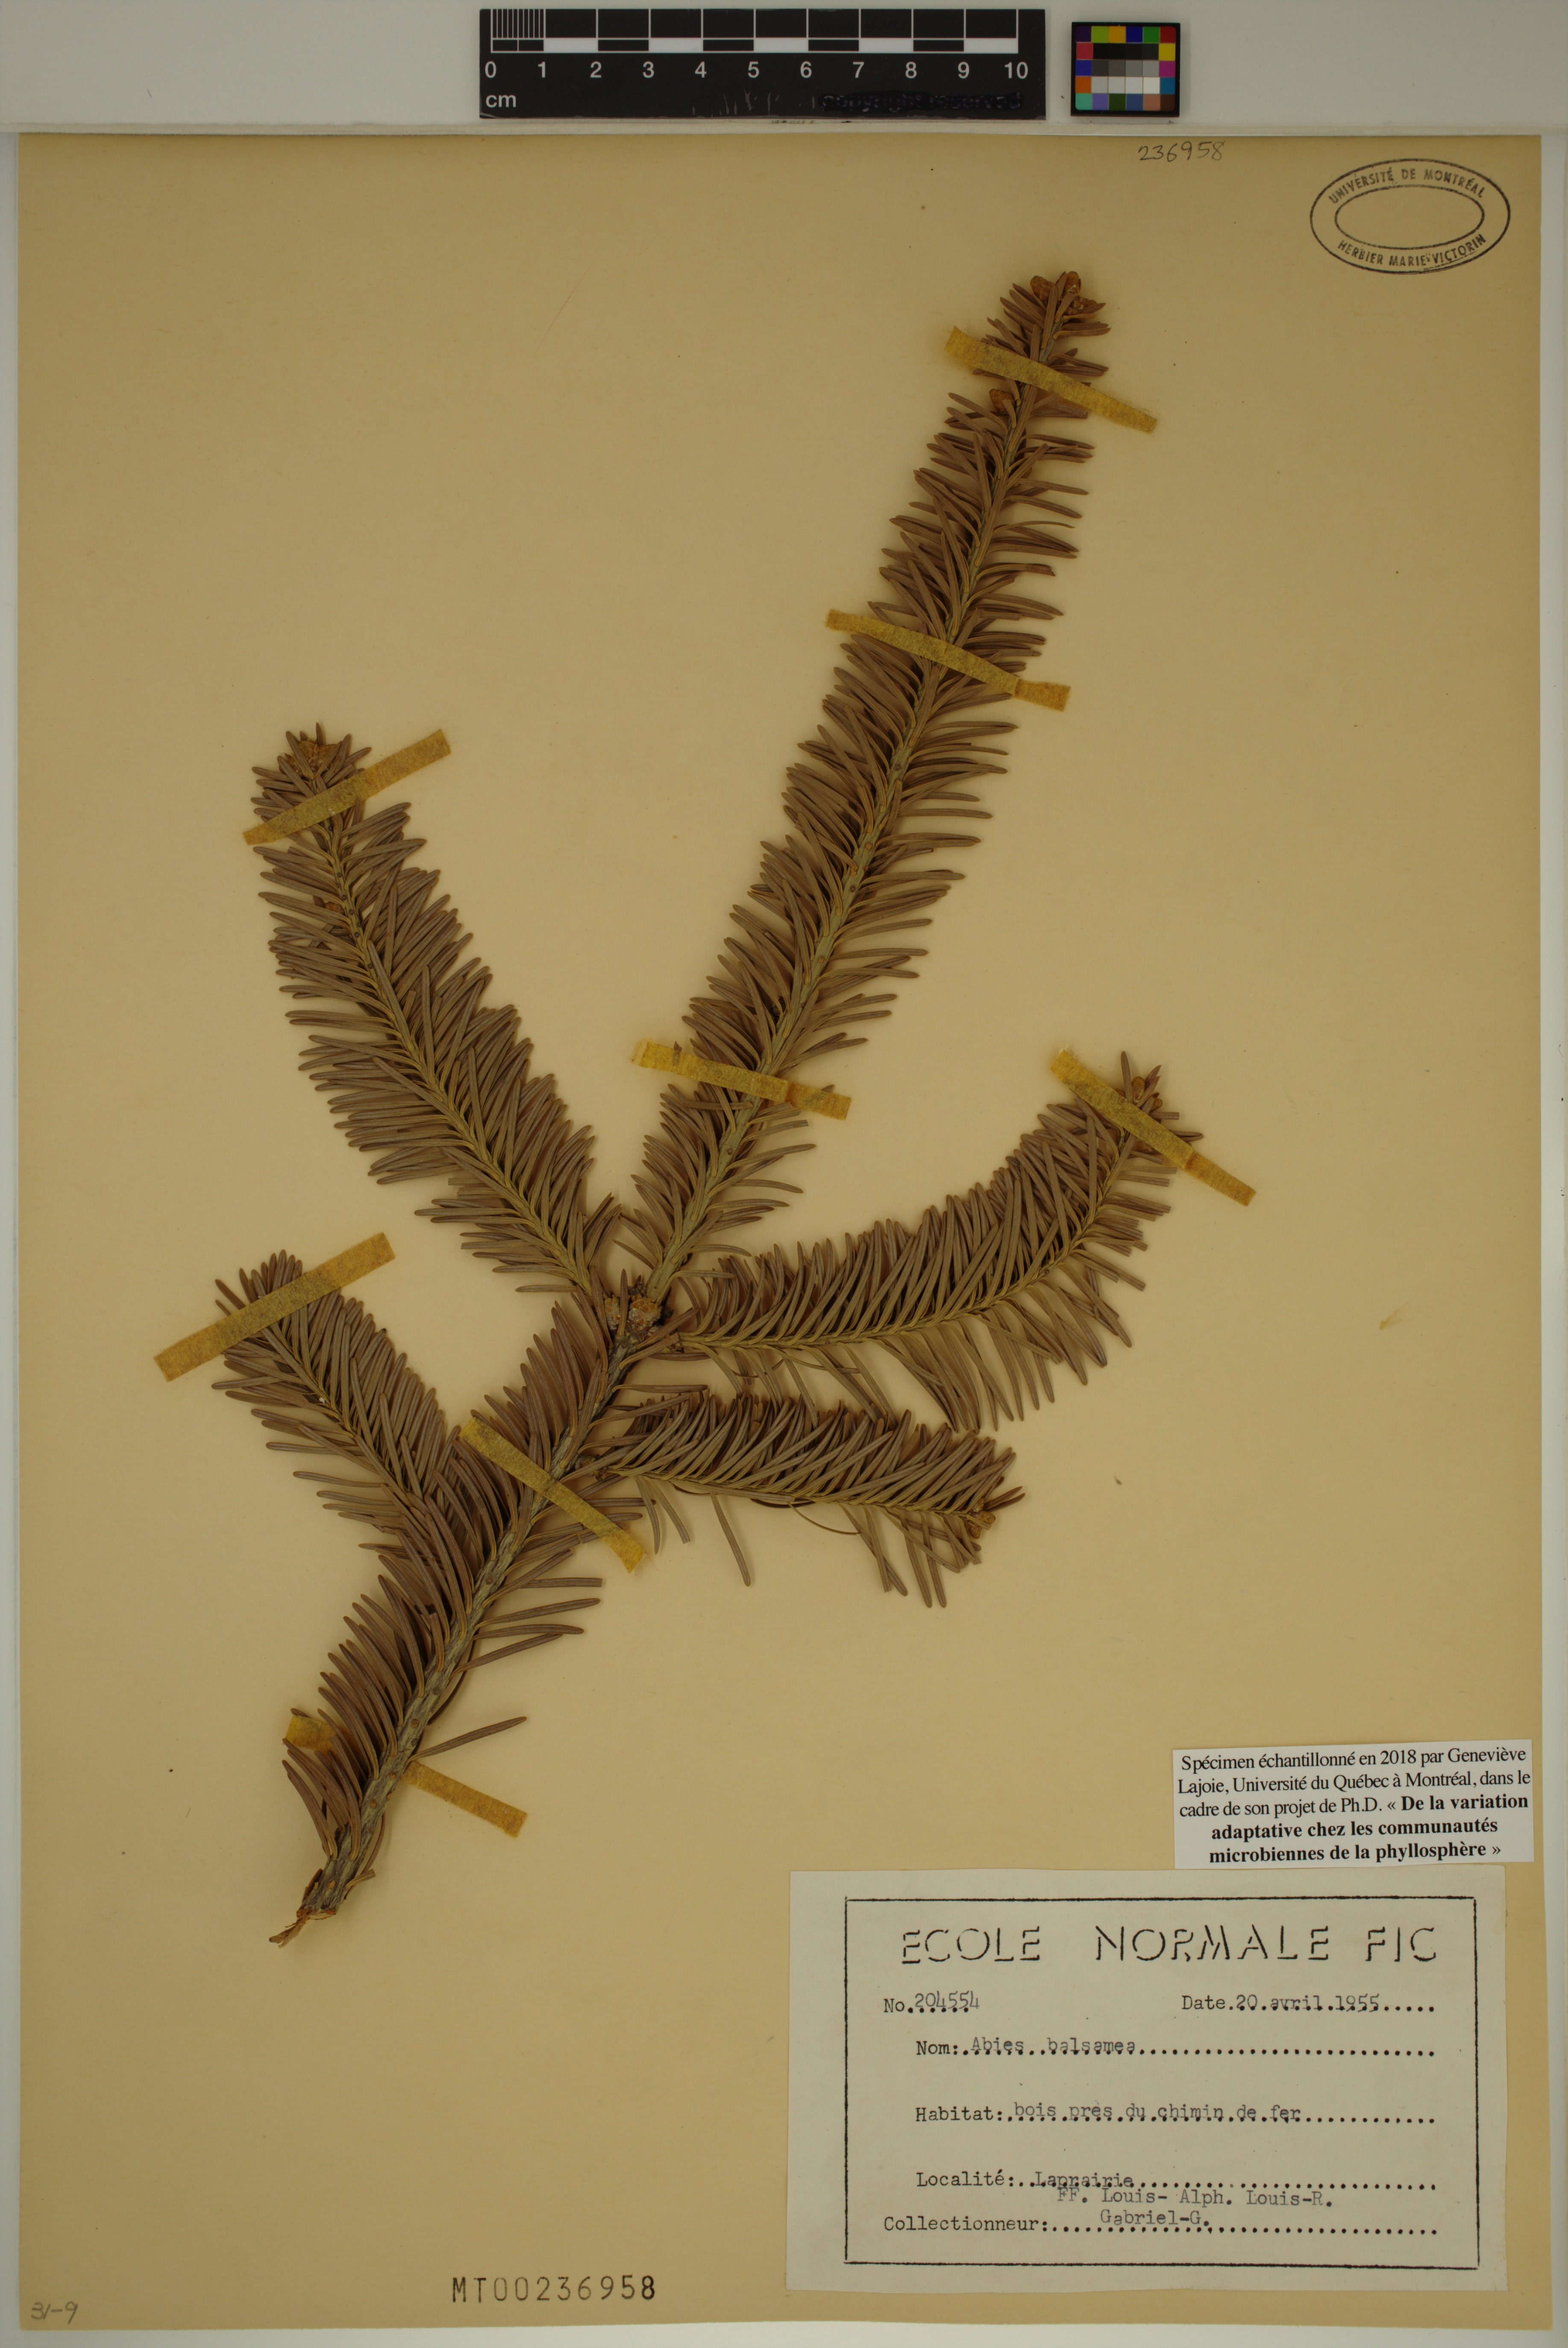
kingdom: Plantae
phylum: Tracheophyta
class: Pinopsida
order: Pinales
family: Pinaceae
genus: Abies
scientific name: Abies balsamea
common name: Balsam fir
